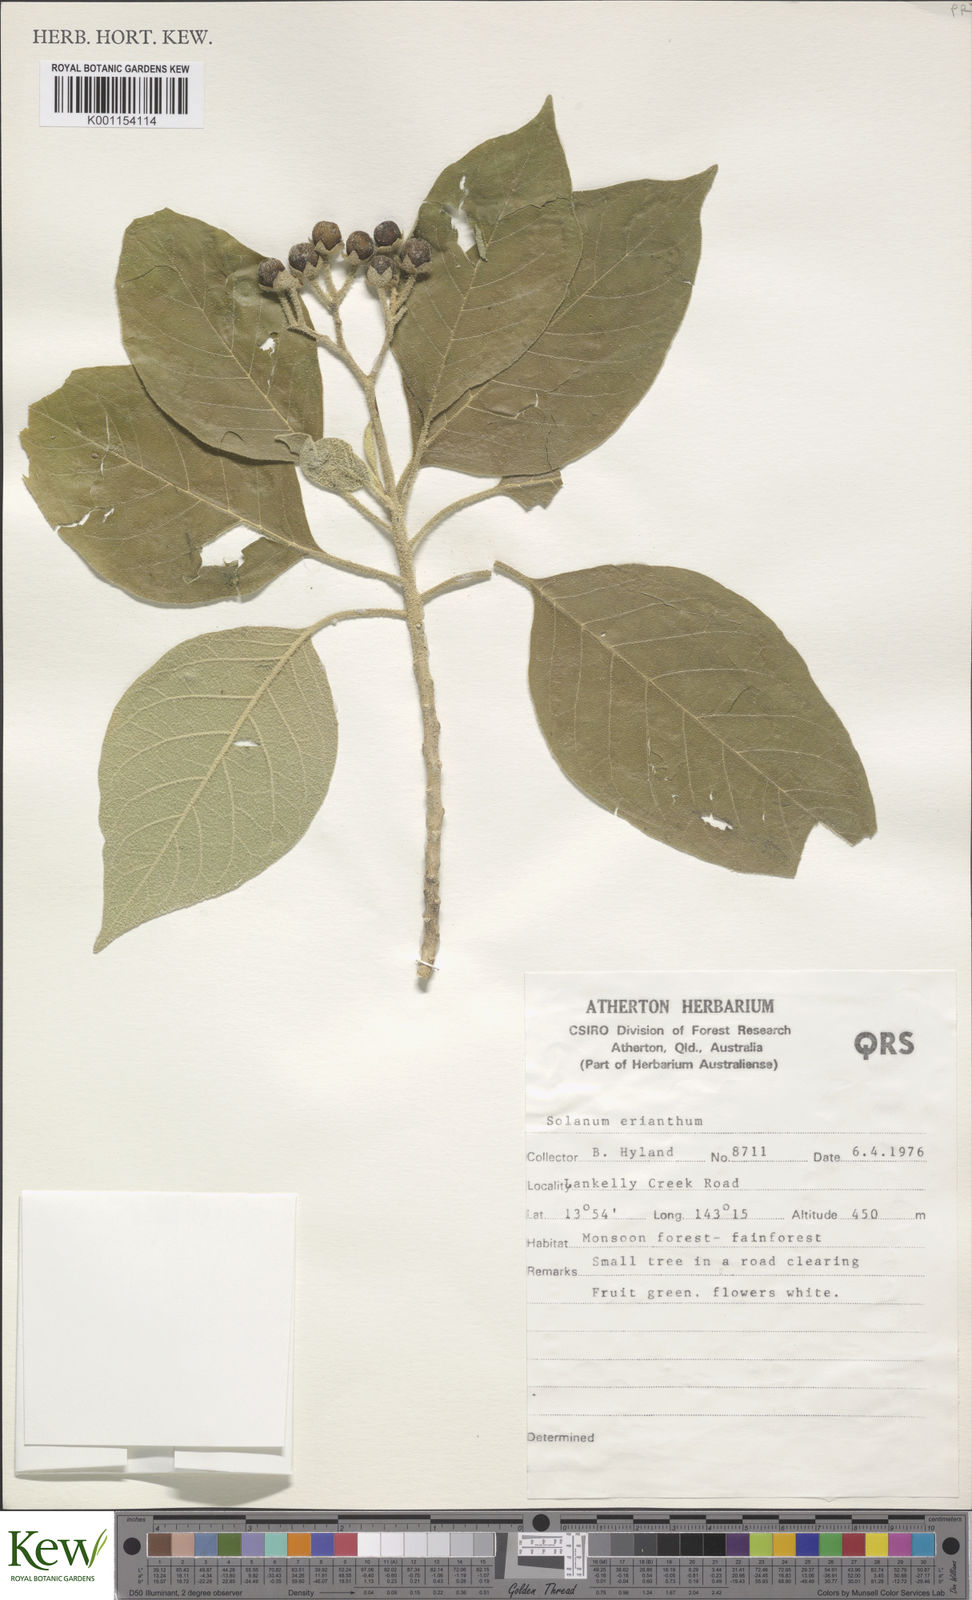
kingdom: Plantae
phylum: Tracheophyta
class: Magnoliopsida
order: Solanales
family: Solanaceae
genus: Solanum
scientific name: Solanum erianthum
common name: Tobacco-tree
